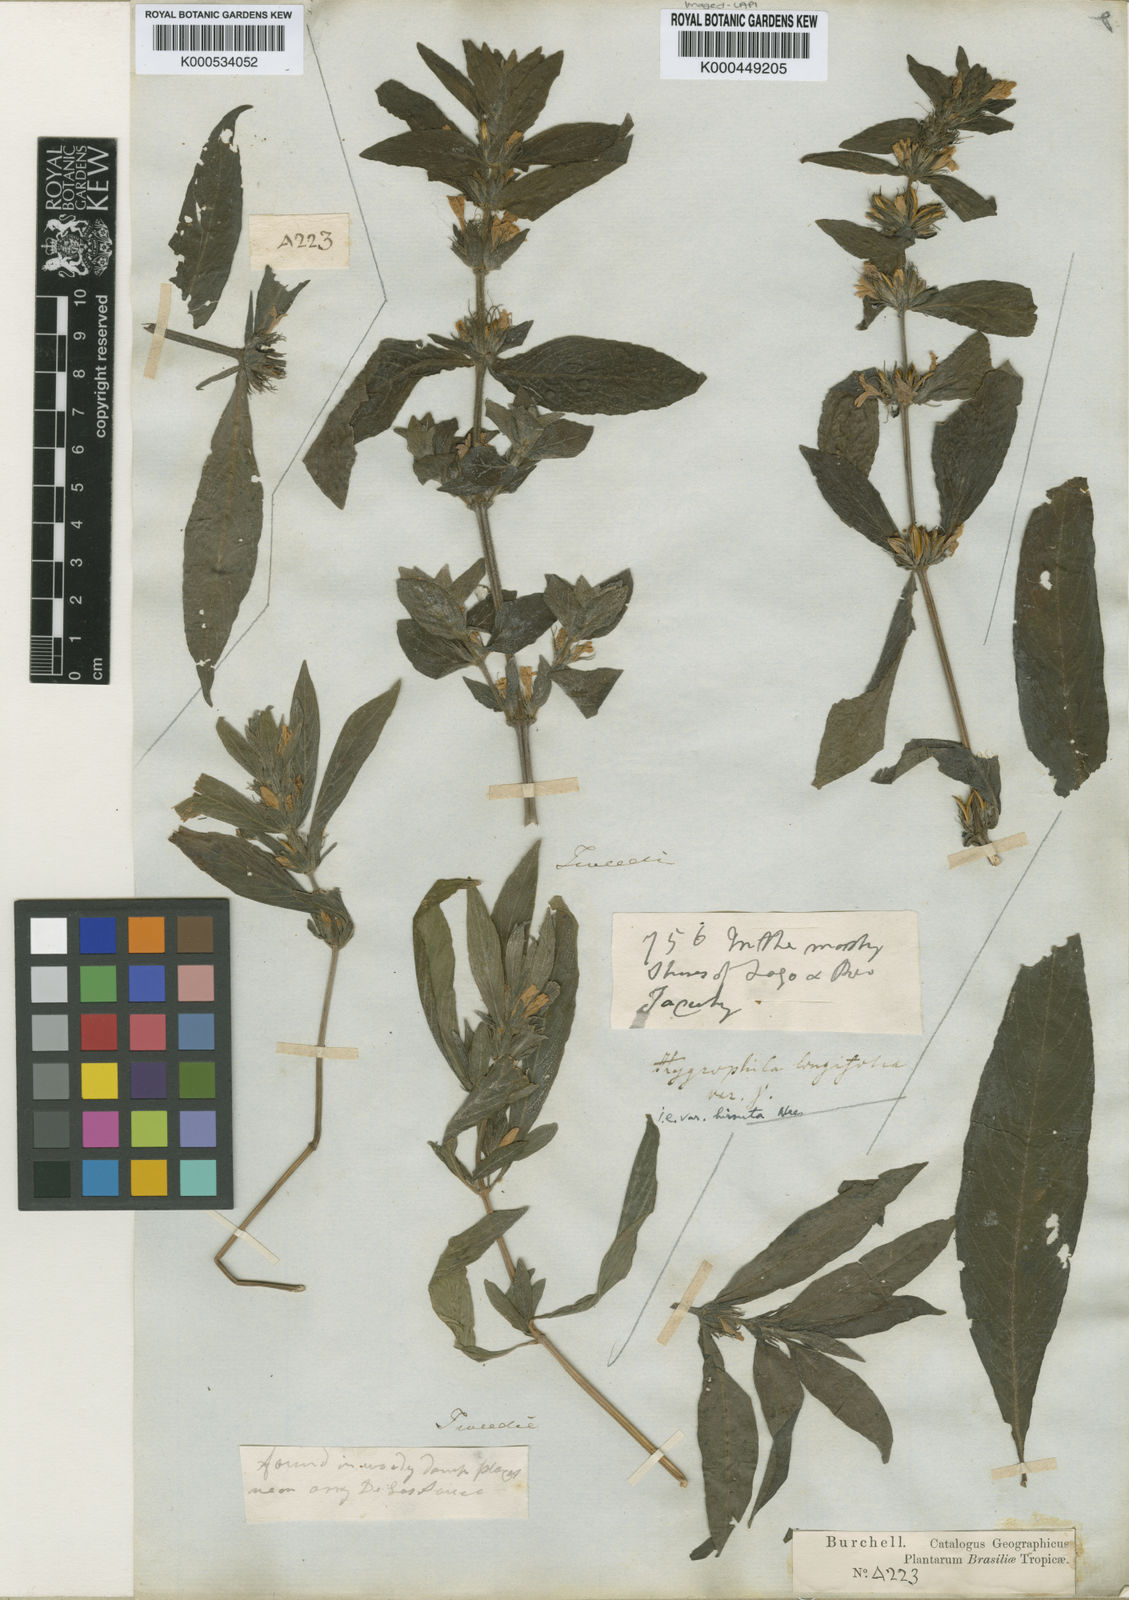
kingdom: Plantae
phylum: Tracheophyta
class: Magnoliopsida
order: Lamiales
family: Acanthaceae
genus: Hygrophila
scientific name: Hygrophila costata
